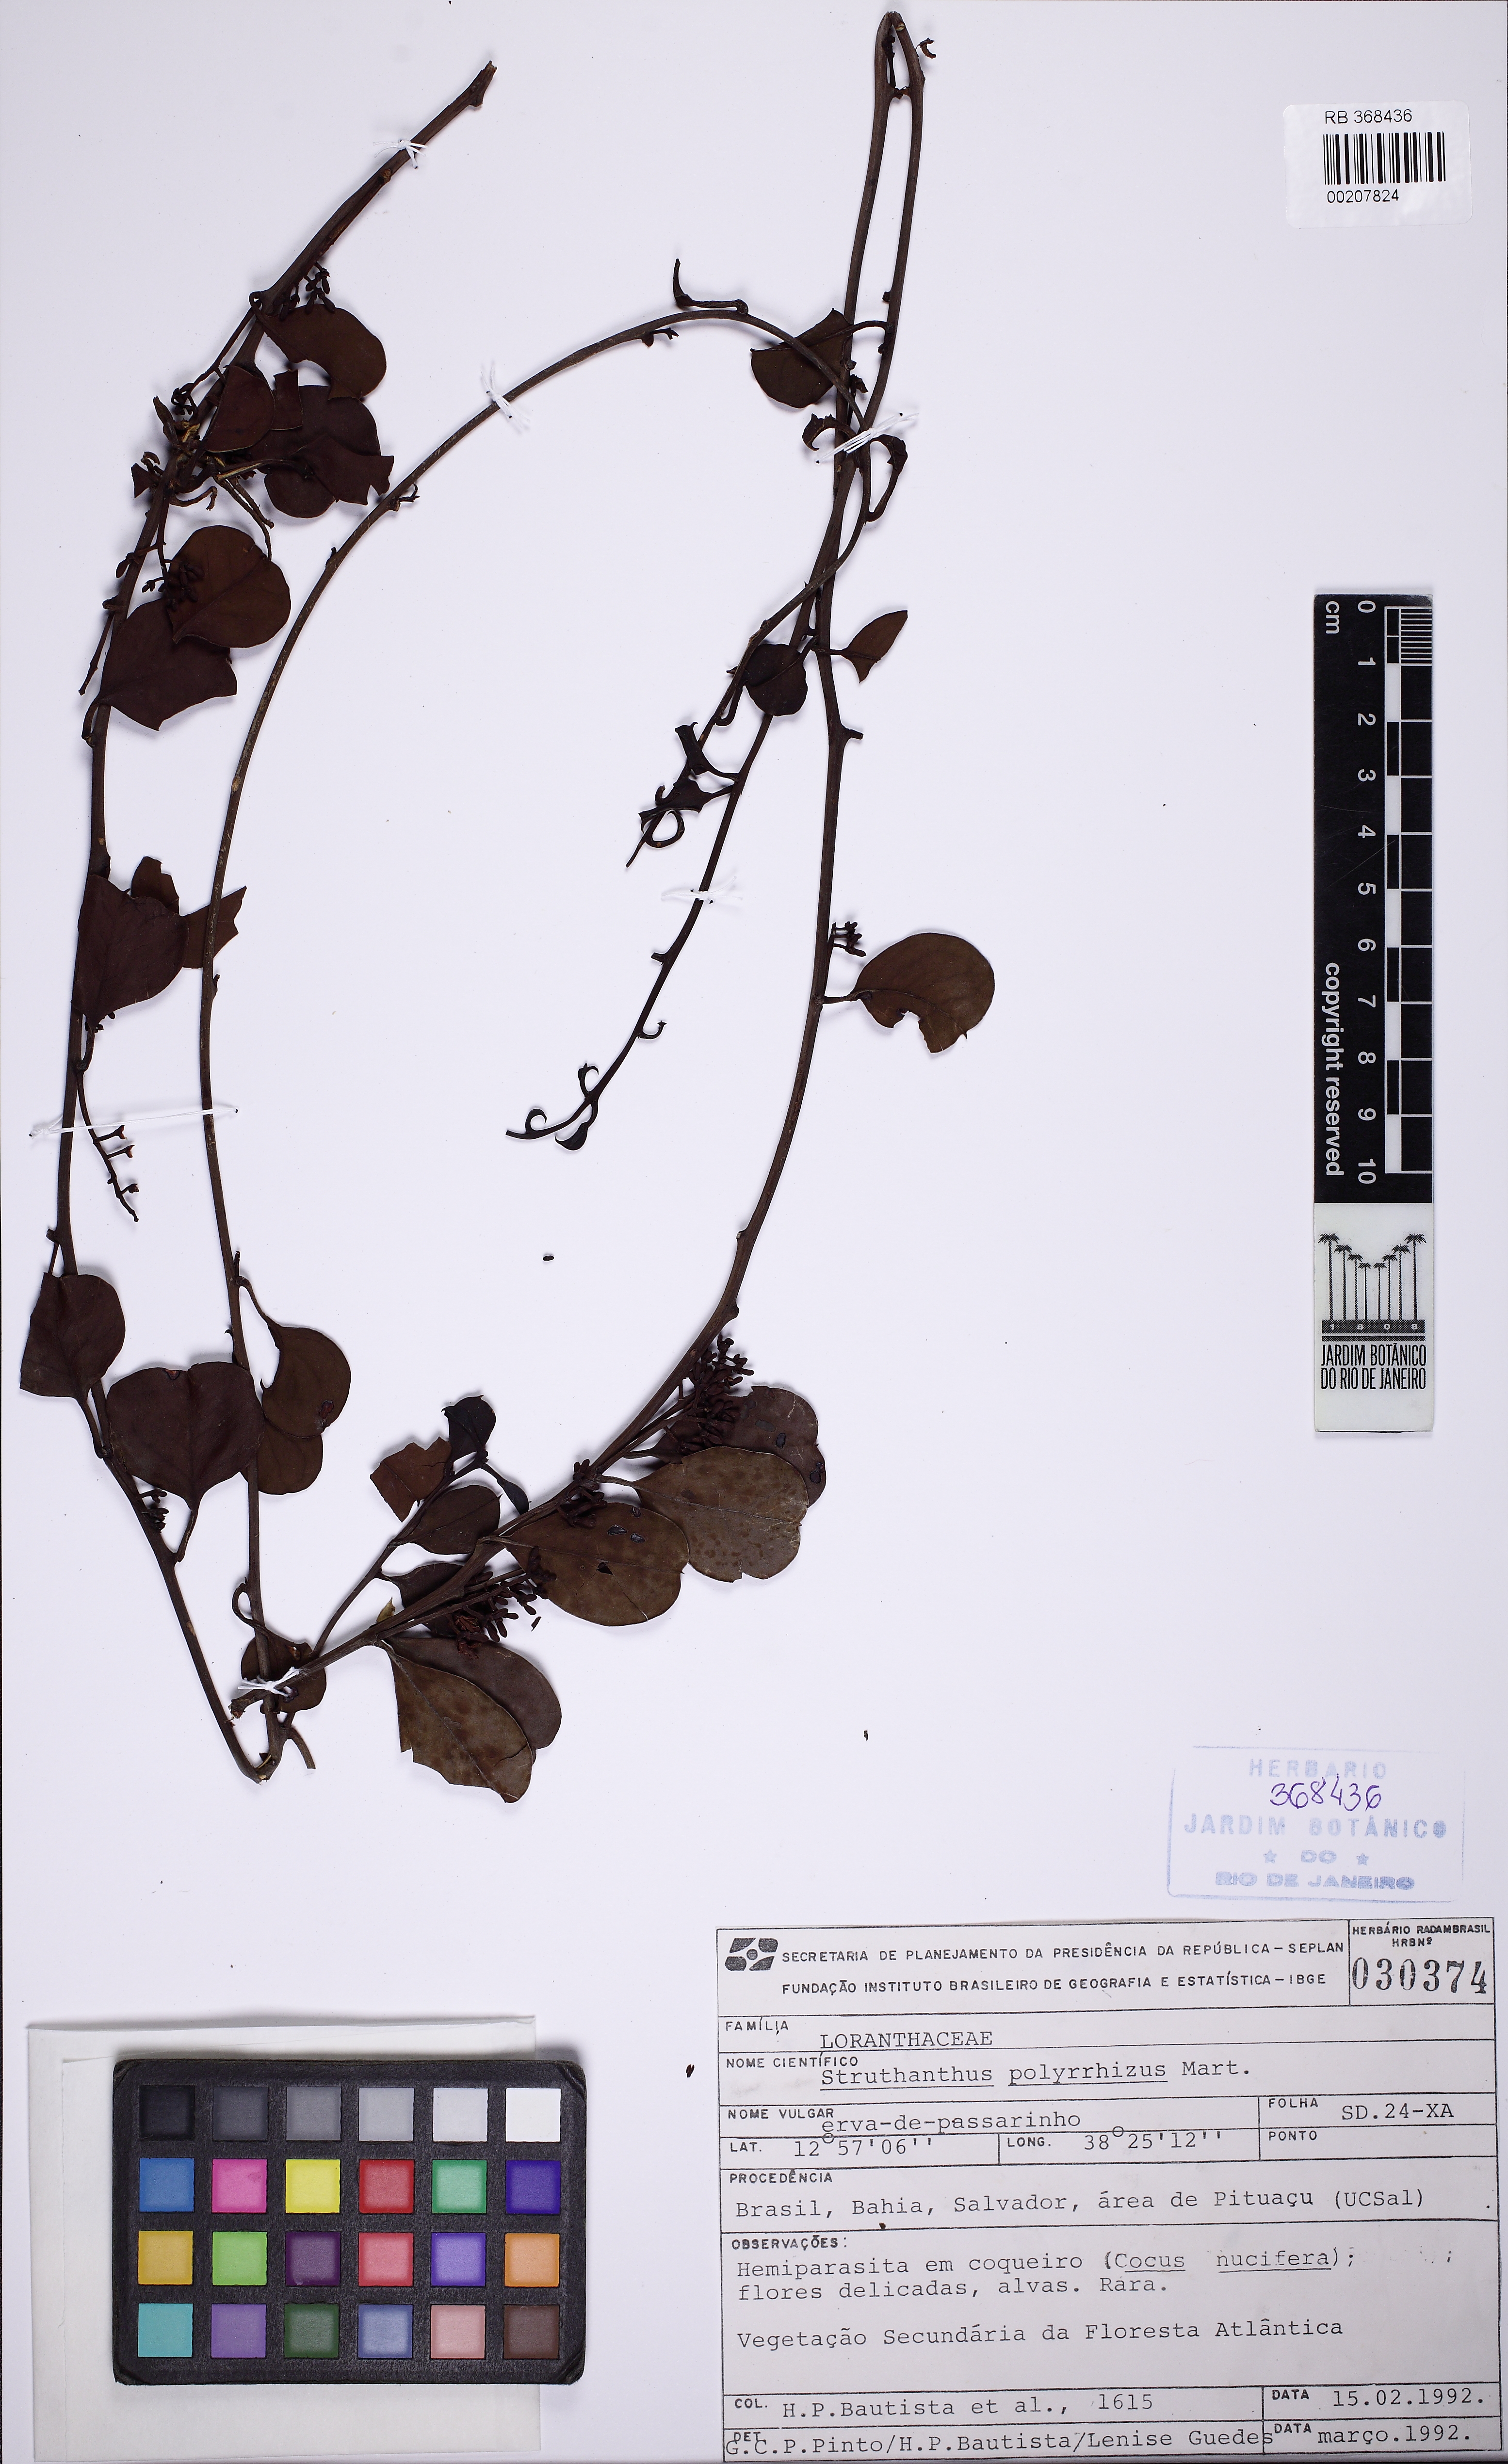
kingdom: Plantae
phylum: Tracheophyta
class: Magnoliopsida
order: Santalales
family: Loranthaceae
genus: Struthanthus
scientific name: Struthanthus retusus
